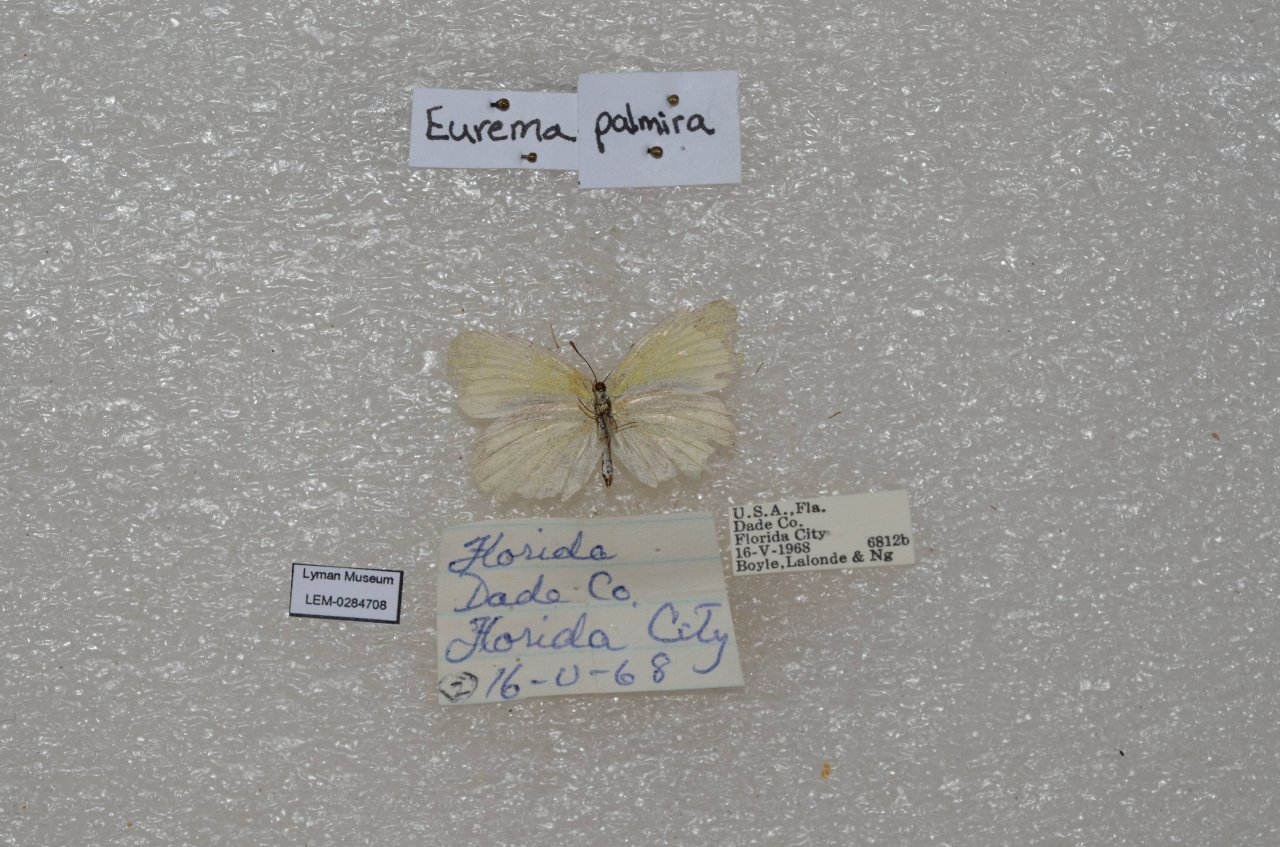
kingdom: Animalia
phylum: Arthropoda
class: Insecta
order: Lepidoptera
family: Pieridae
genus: Eurema
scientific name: Eurema daira
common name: Barred Yellow
